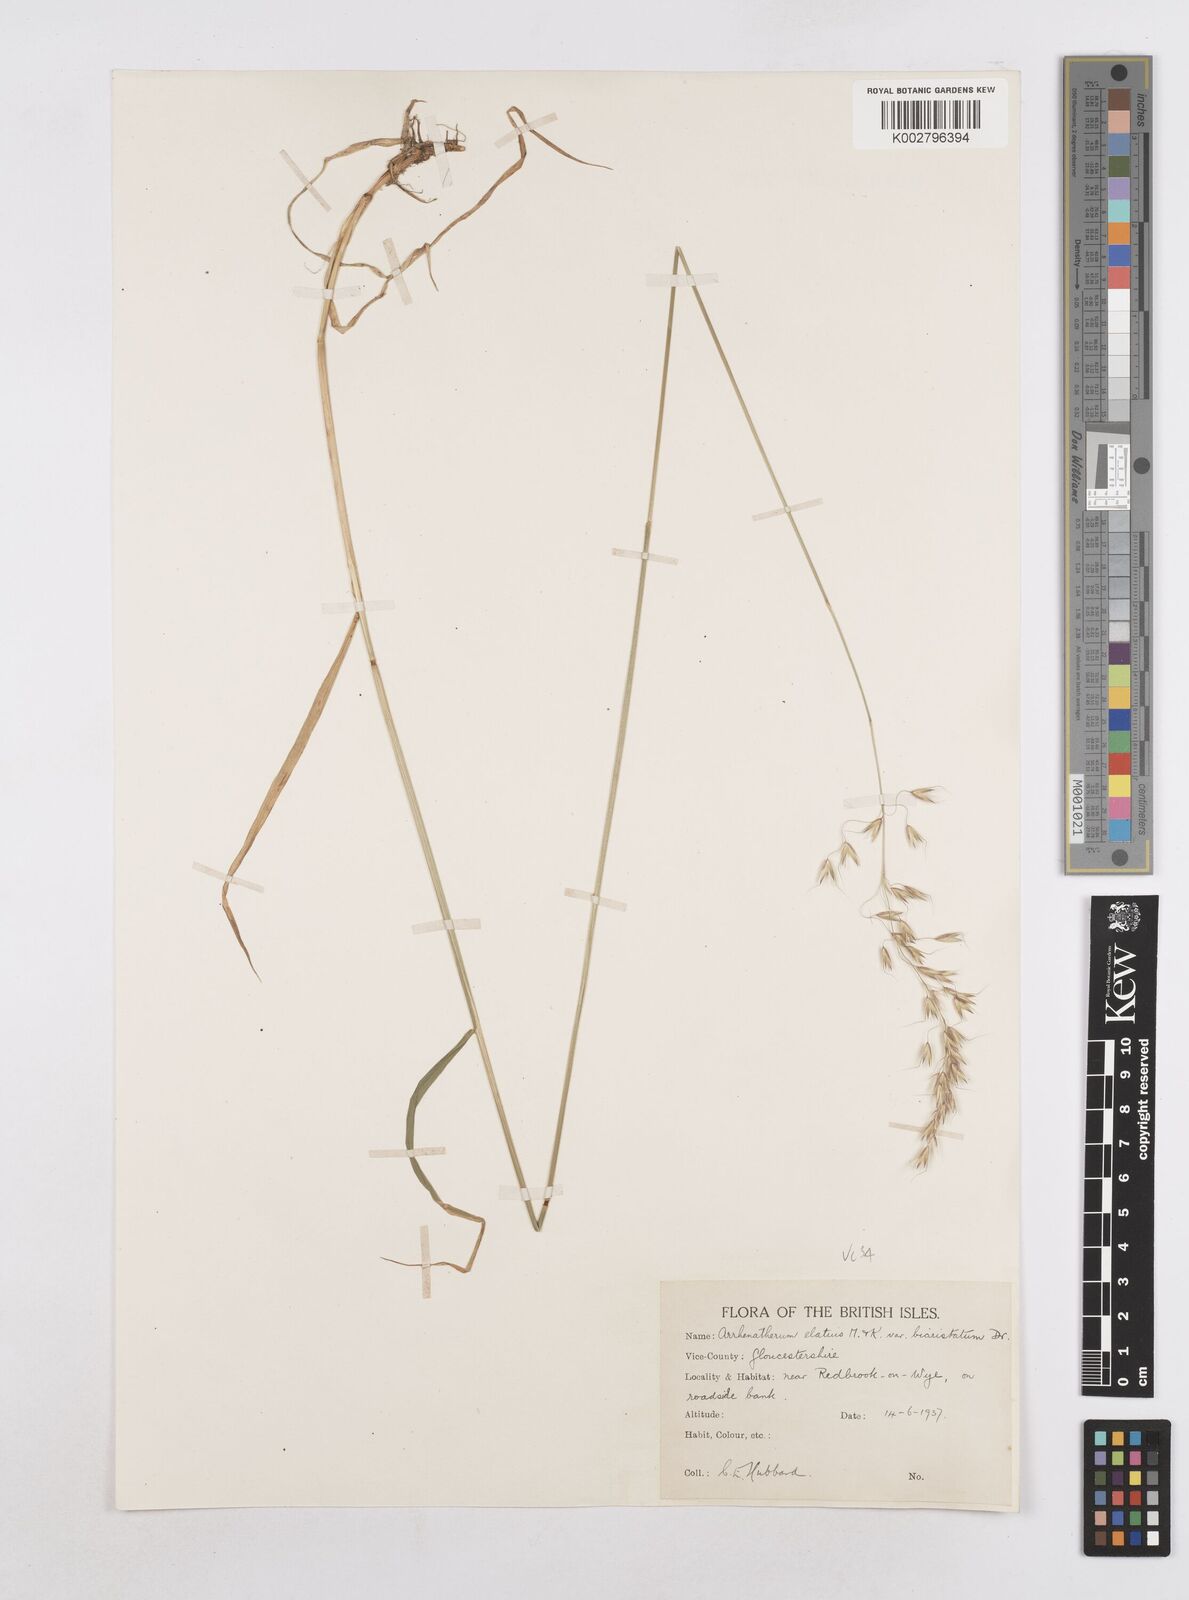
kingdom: Plantae
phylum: Tracheophyta
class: Liliopsida
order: Poales
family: Poaceae
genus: Arrhenatherum
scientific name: Arrhenatherum elatius
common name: Tall oatgrass
